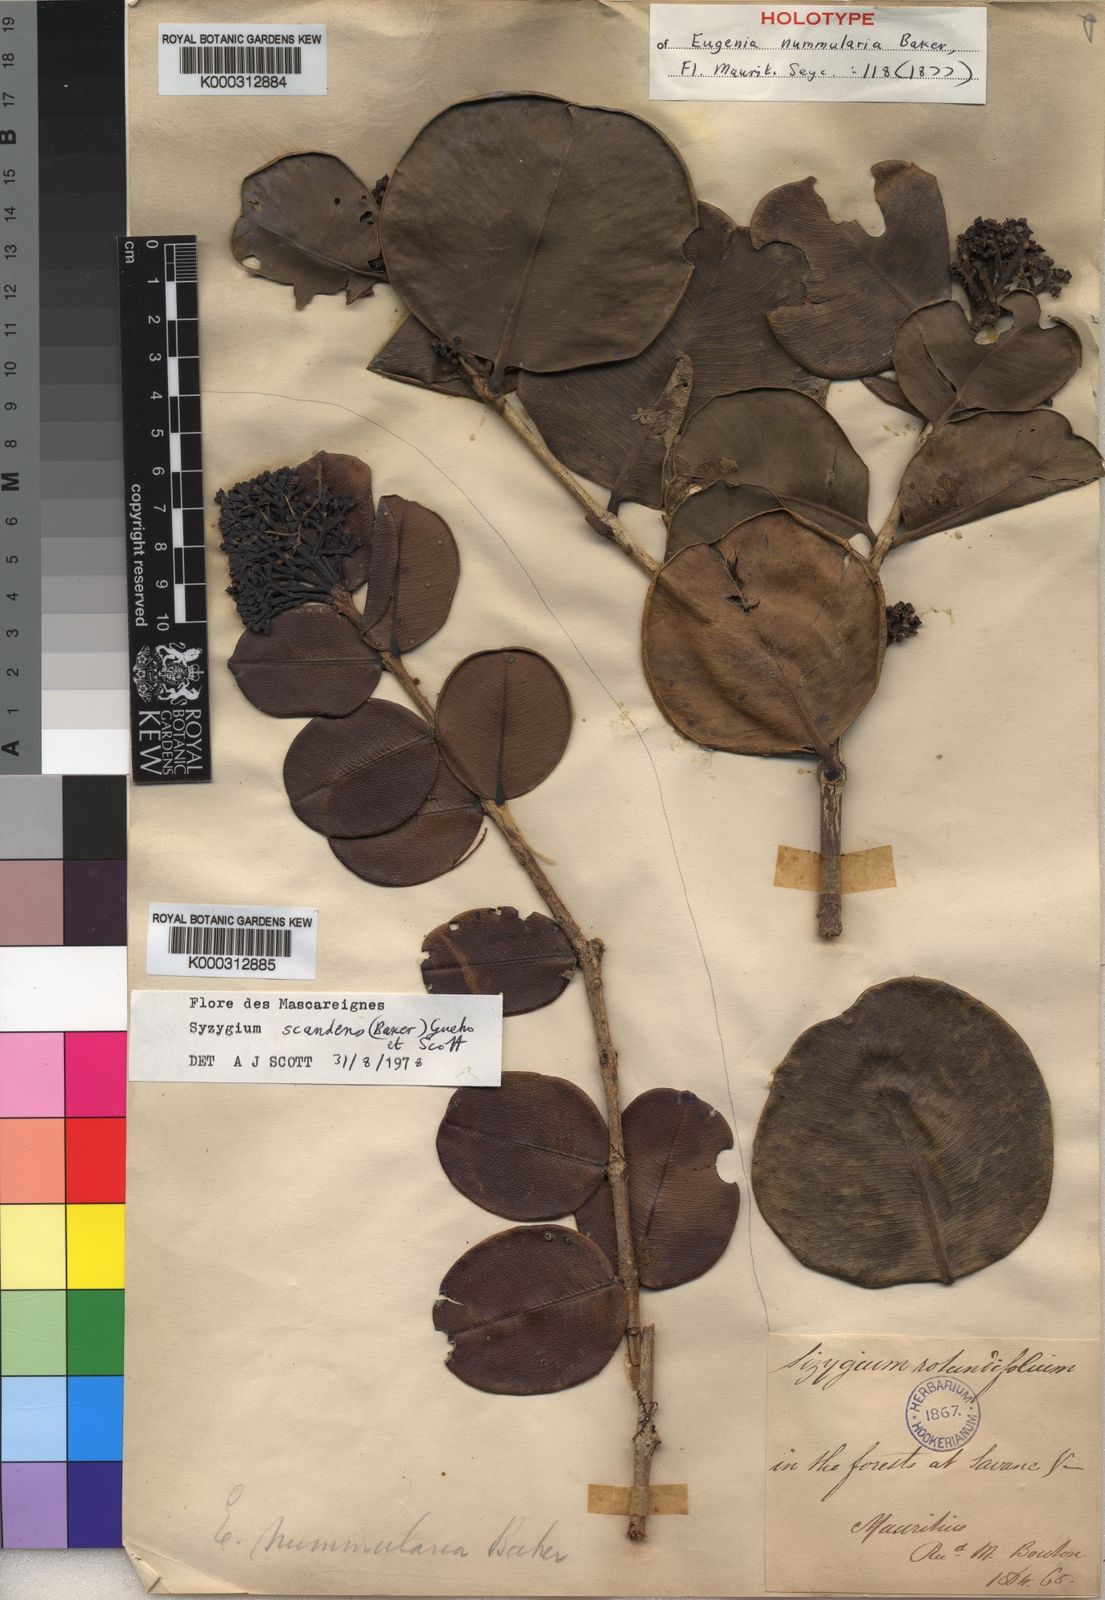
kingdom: Plantae
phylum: Tracheophyta
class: Magnoliopsida
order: Myrtales
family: Myrtaceae
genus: Syzygium
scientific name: Syzygium latifolium
